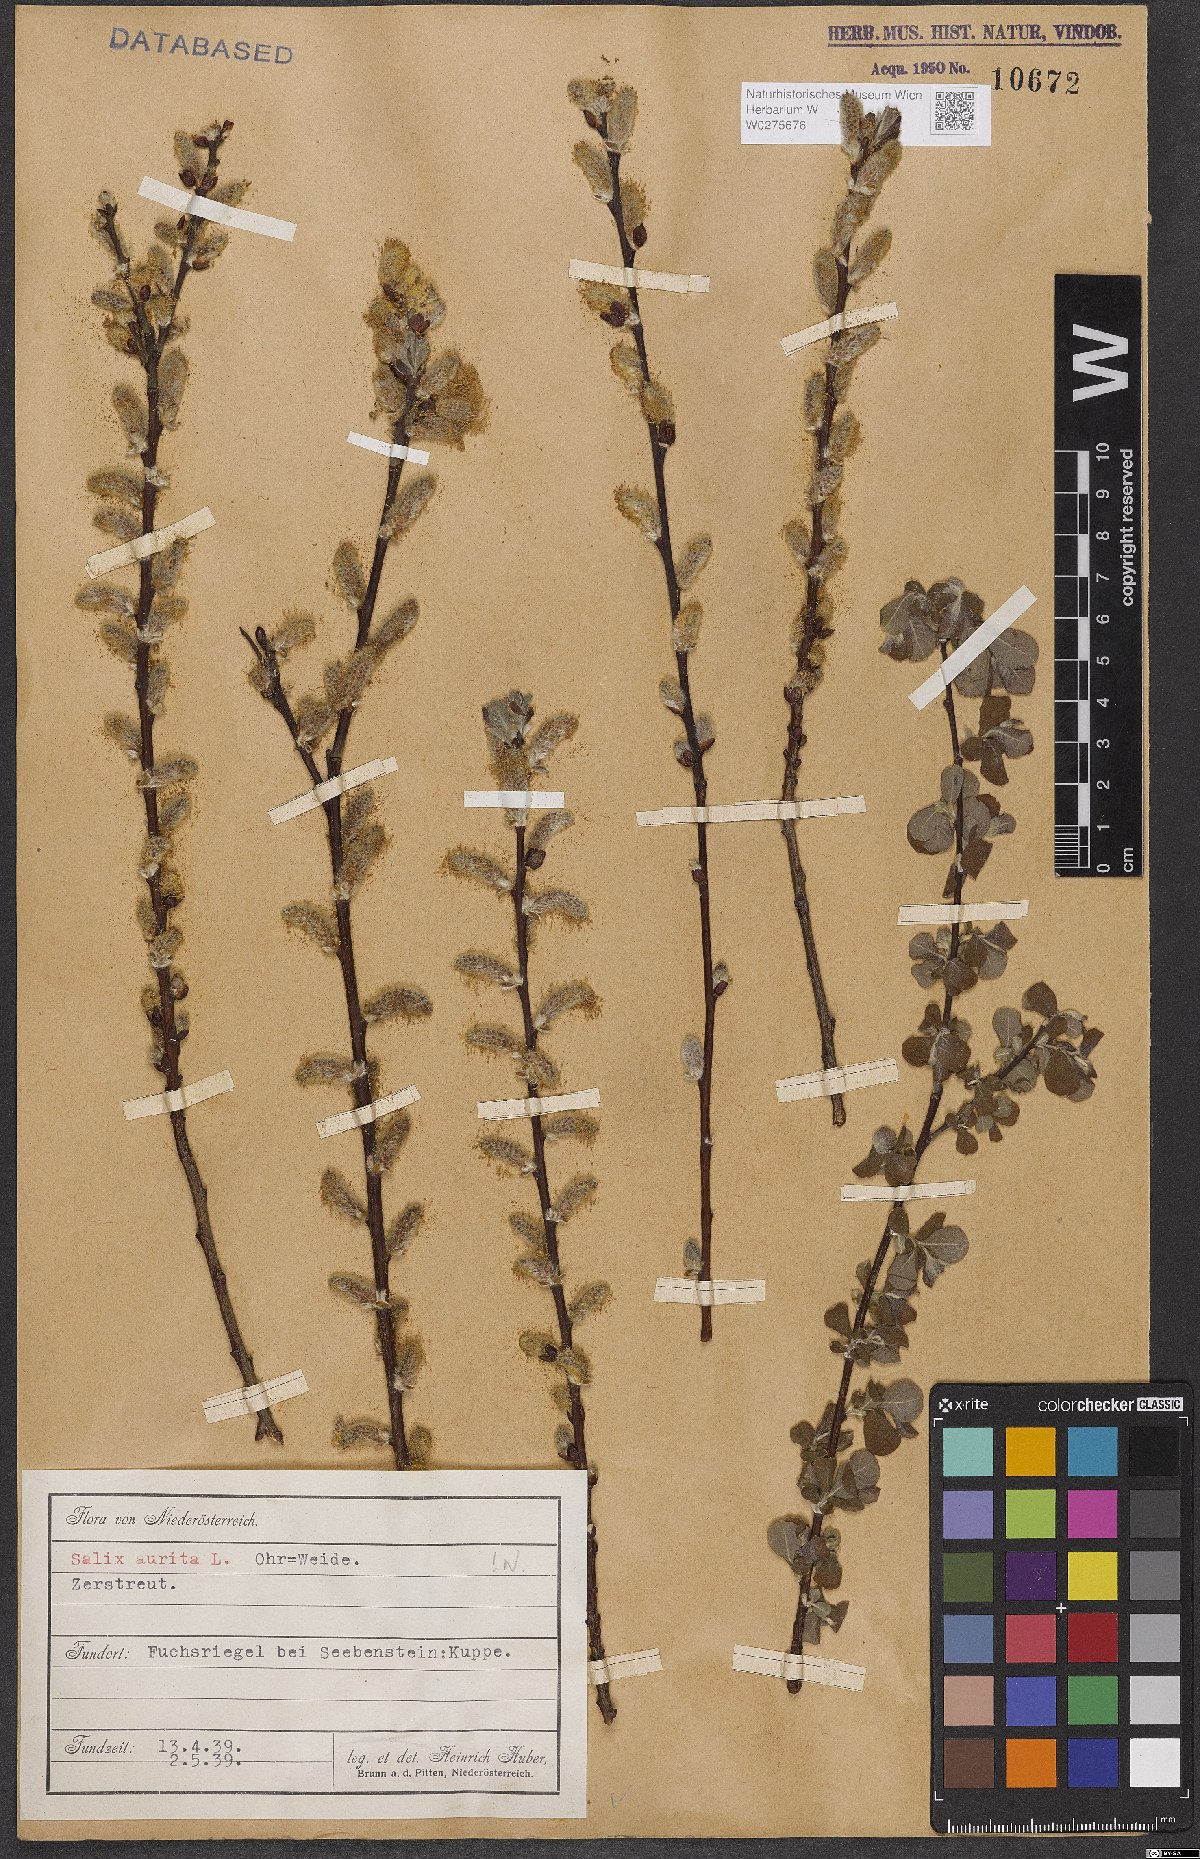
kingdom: Plantae
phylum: Tracheophyta
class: Magnoliopsida
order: Malpighiales
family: Salicaceae
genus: Salix
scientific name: Salix aurita
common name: Eared willow
